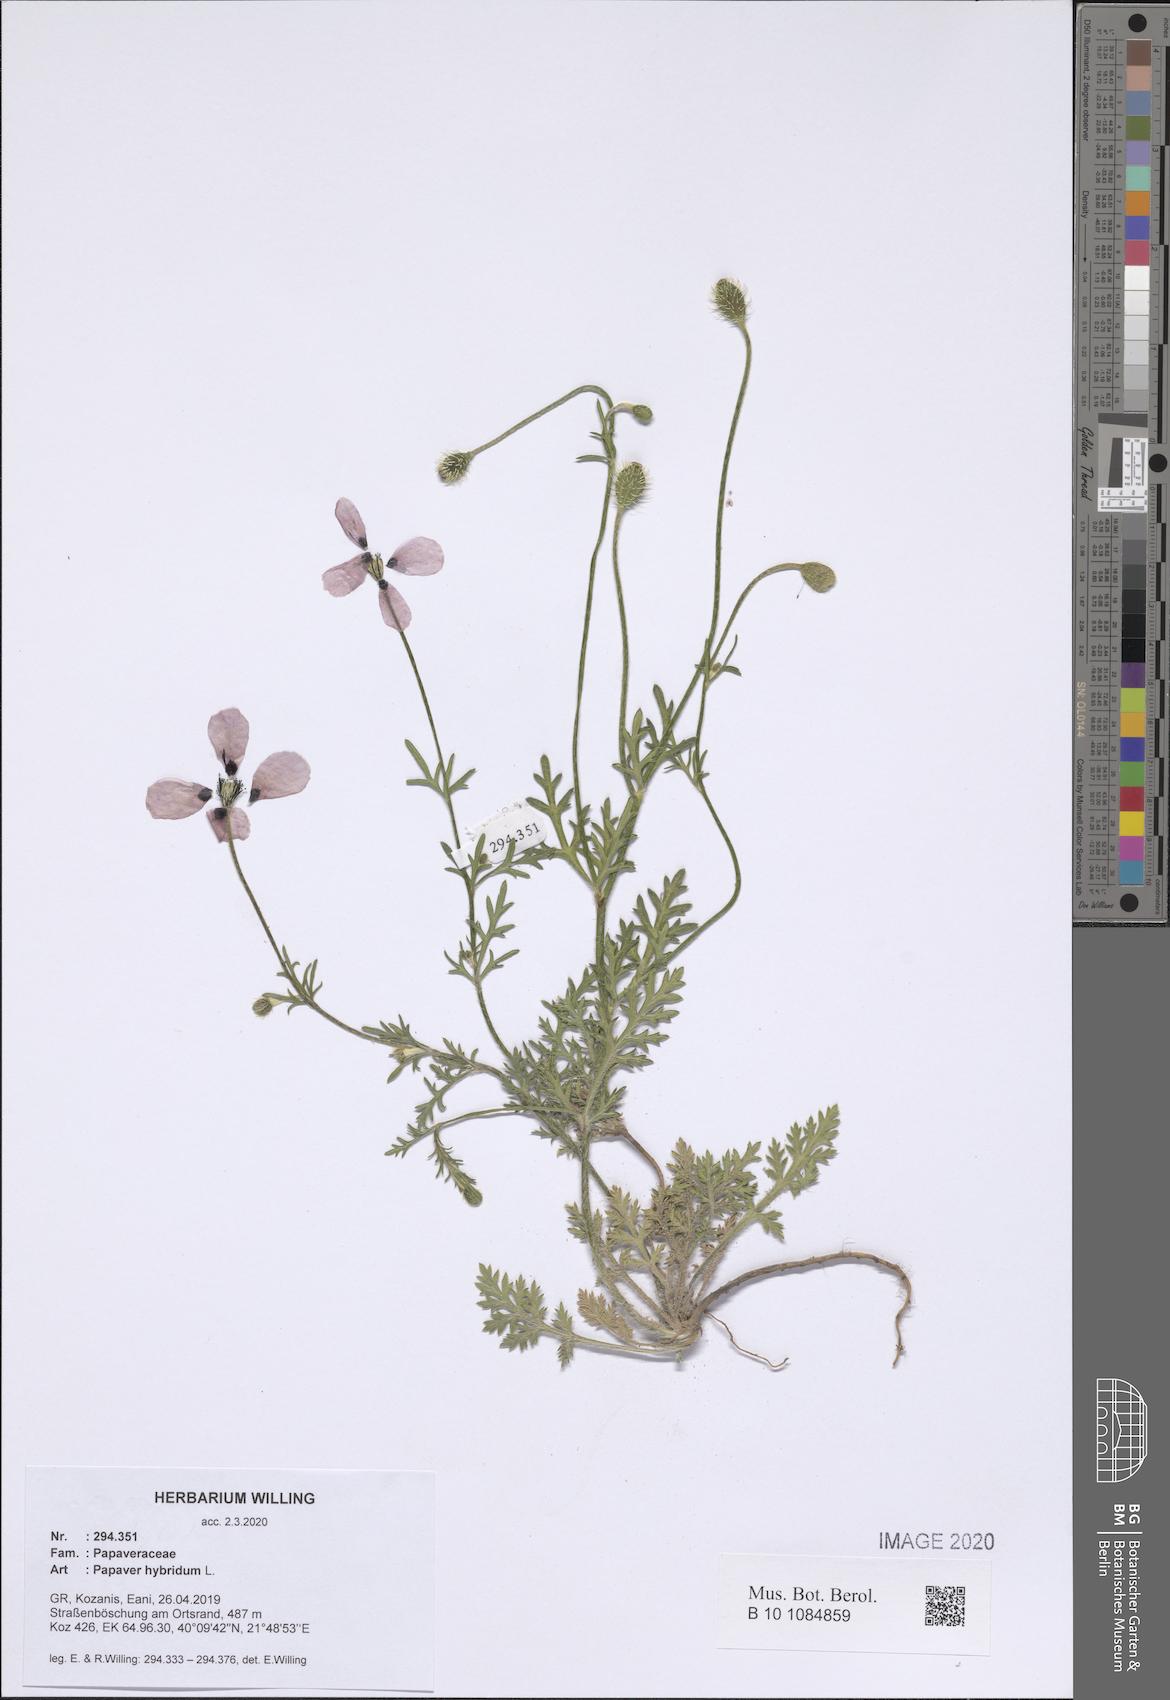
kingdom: Plantae
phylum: Tracheophyta
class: Magnoliopsida
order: Ranunculales
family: Papaveraceae
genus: Roemeria
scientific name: Roemeria hispida
